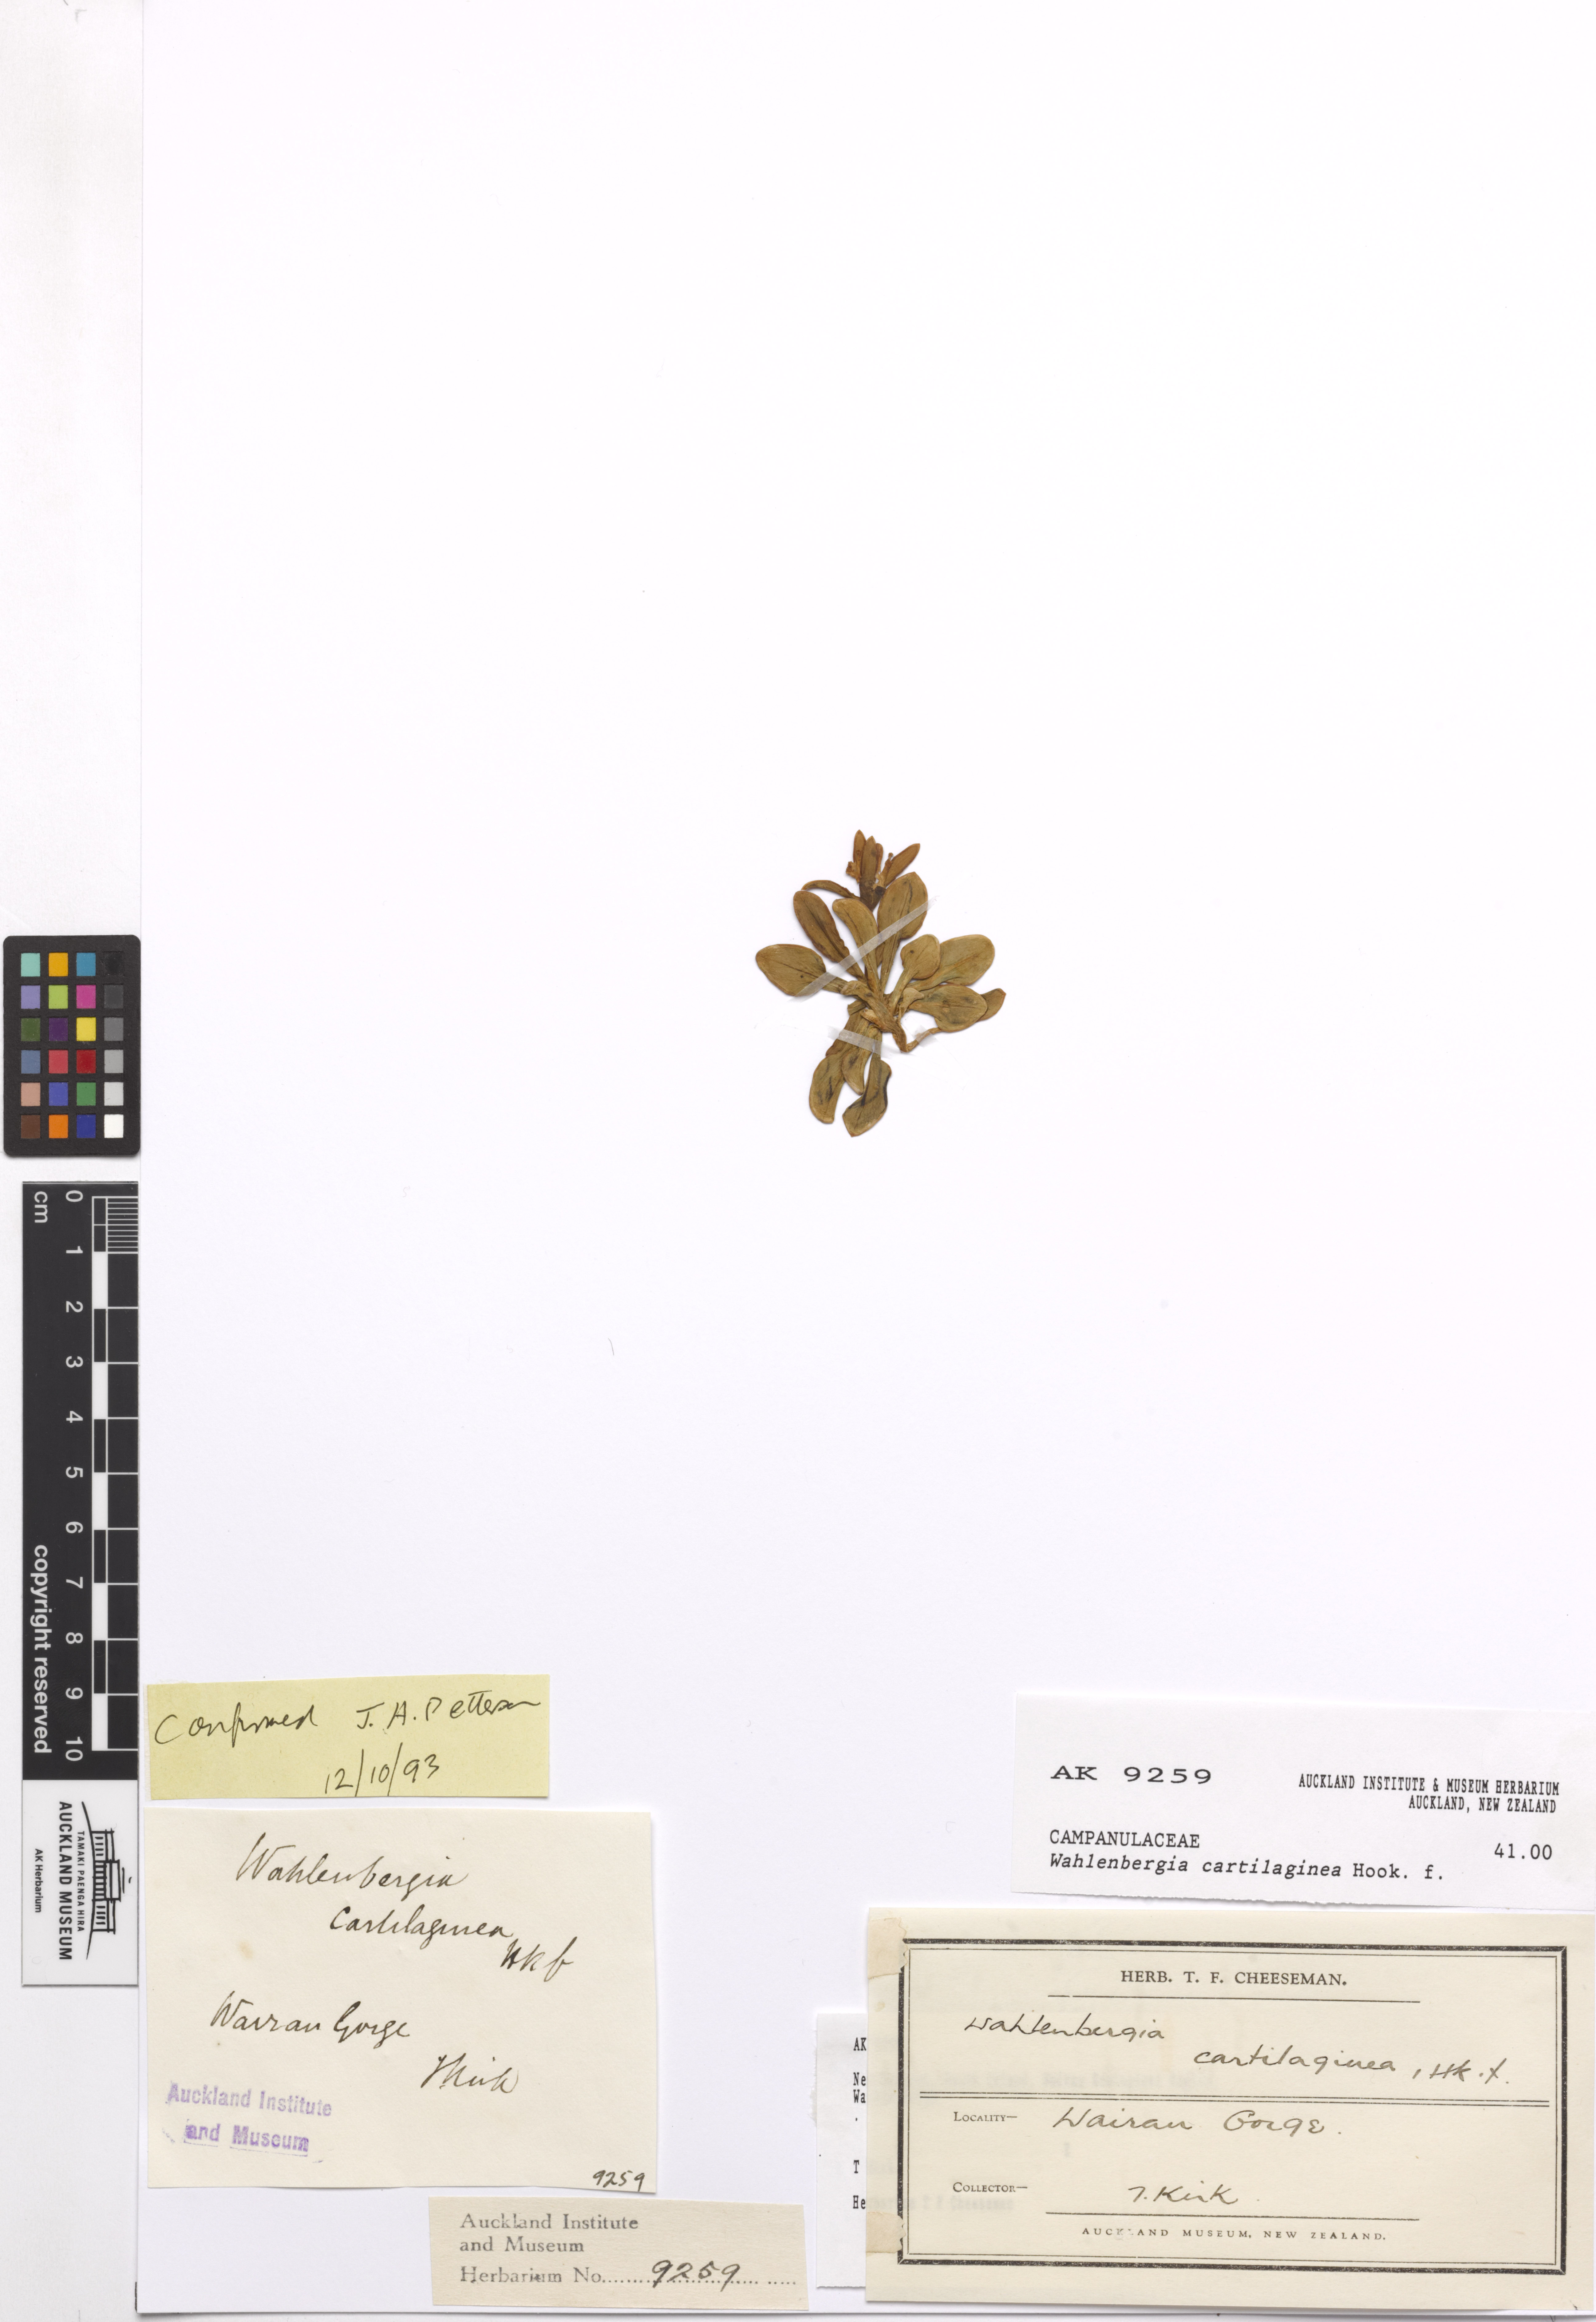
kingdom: Plantae
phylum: Tracheophyta
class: Magnoliopsida
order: Asterales
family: Campanulaceae
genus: Wahlenbergia
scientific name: Wahlenbergia cartilaginea
